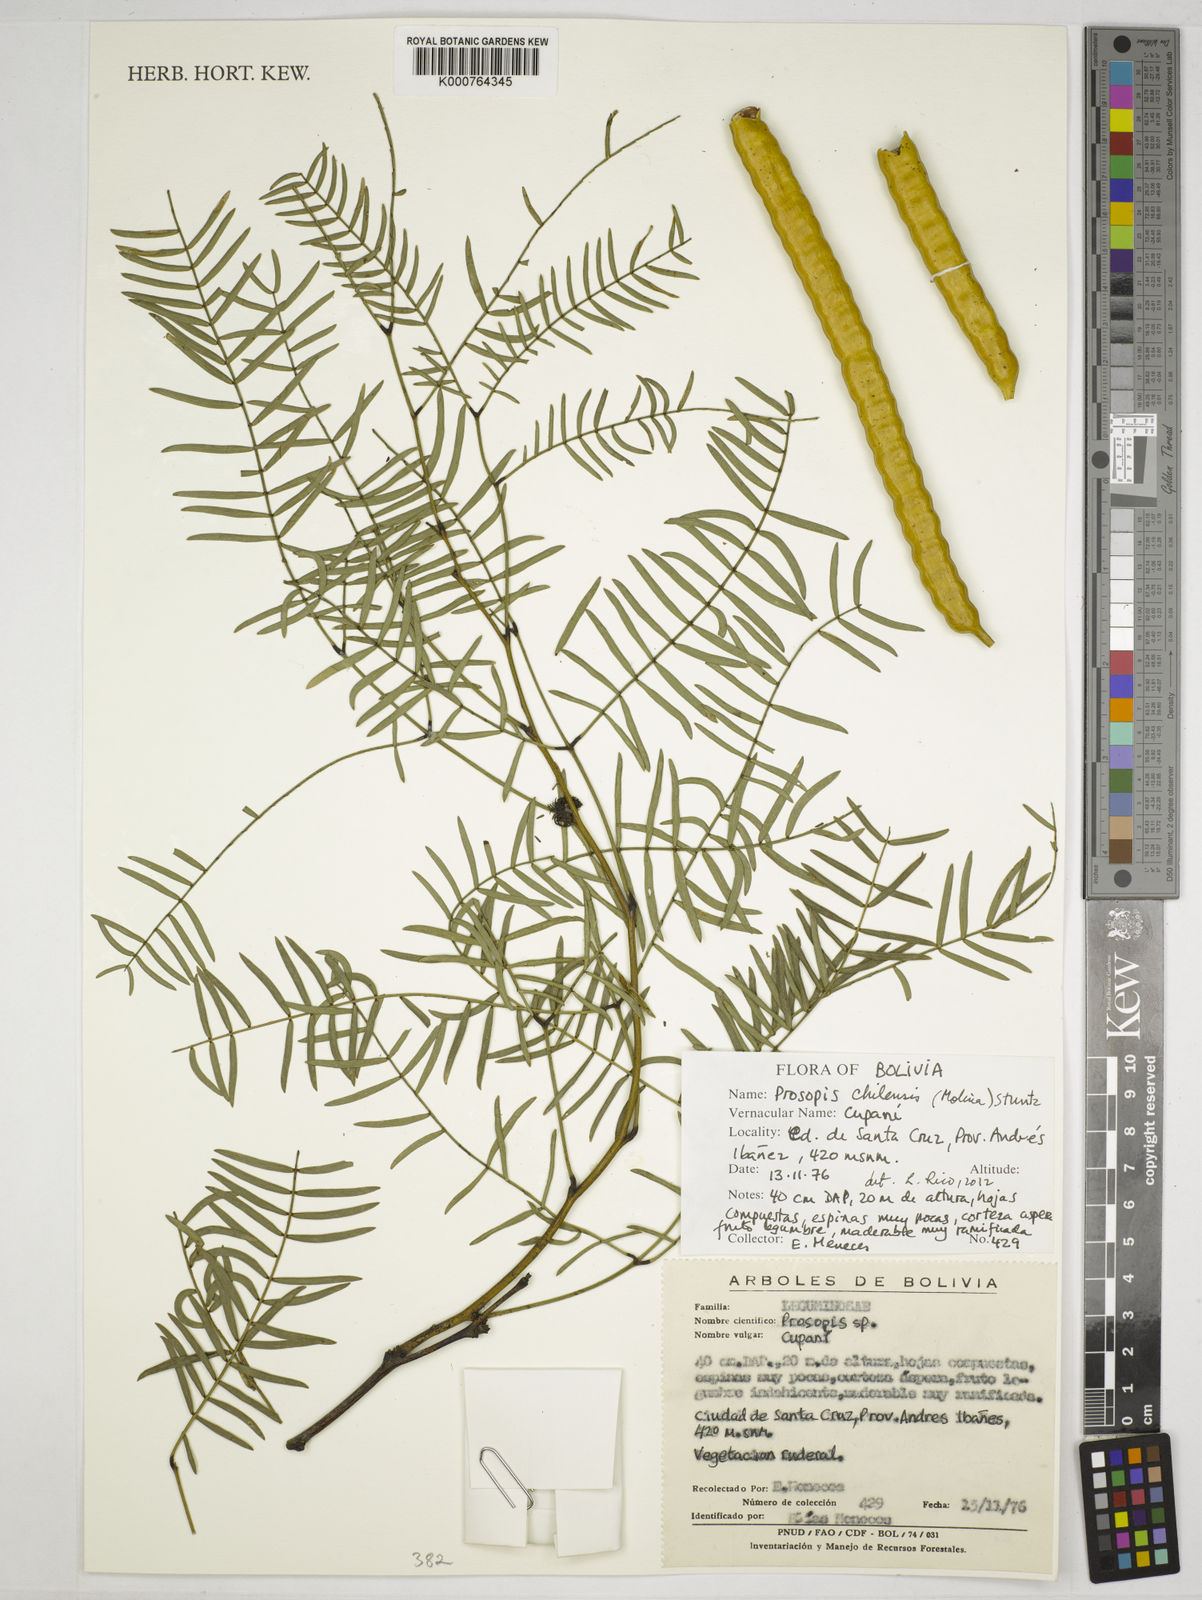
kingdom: Plantae
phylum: Tracheophyta
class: Magnoliopsida
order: Fabales
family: Fabaceae
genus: Prosopis
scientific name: Prosopis chilensis
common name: Chilean algarrobo
